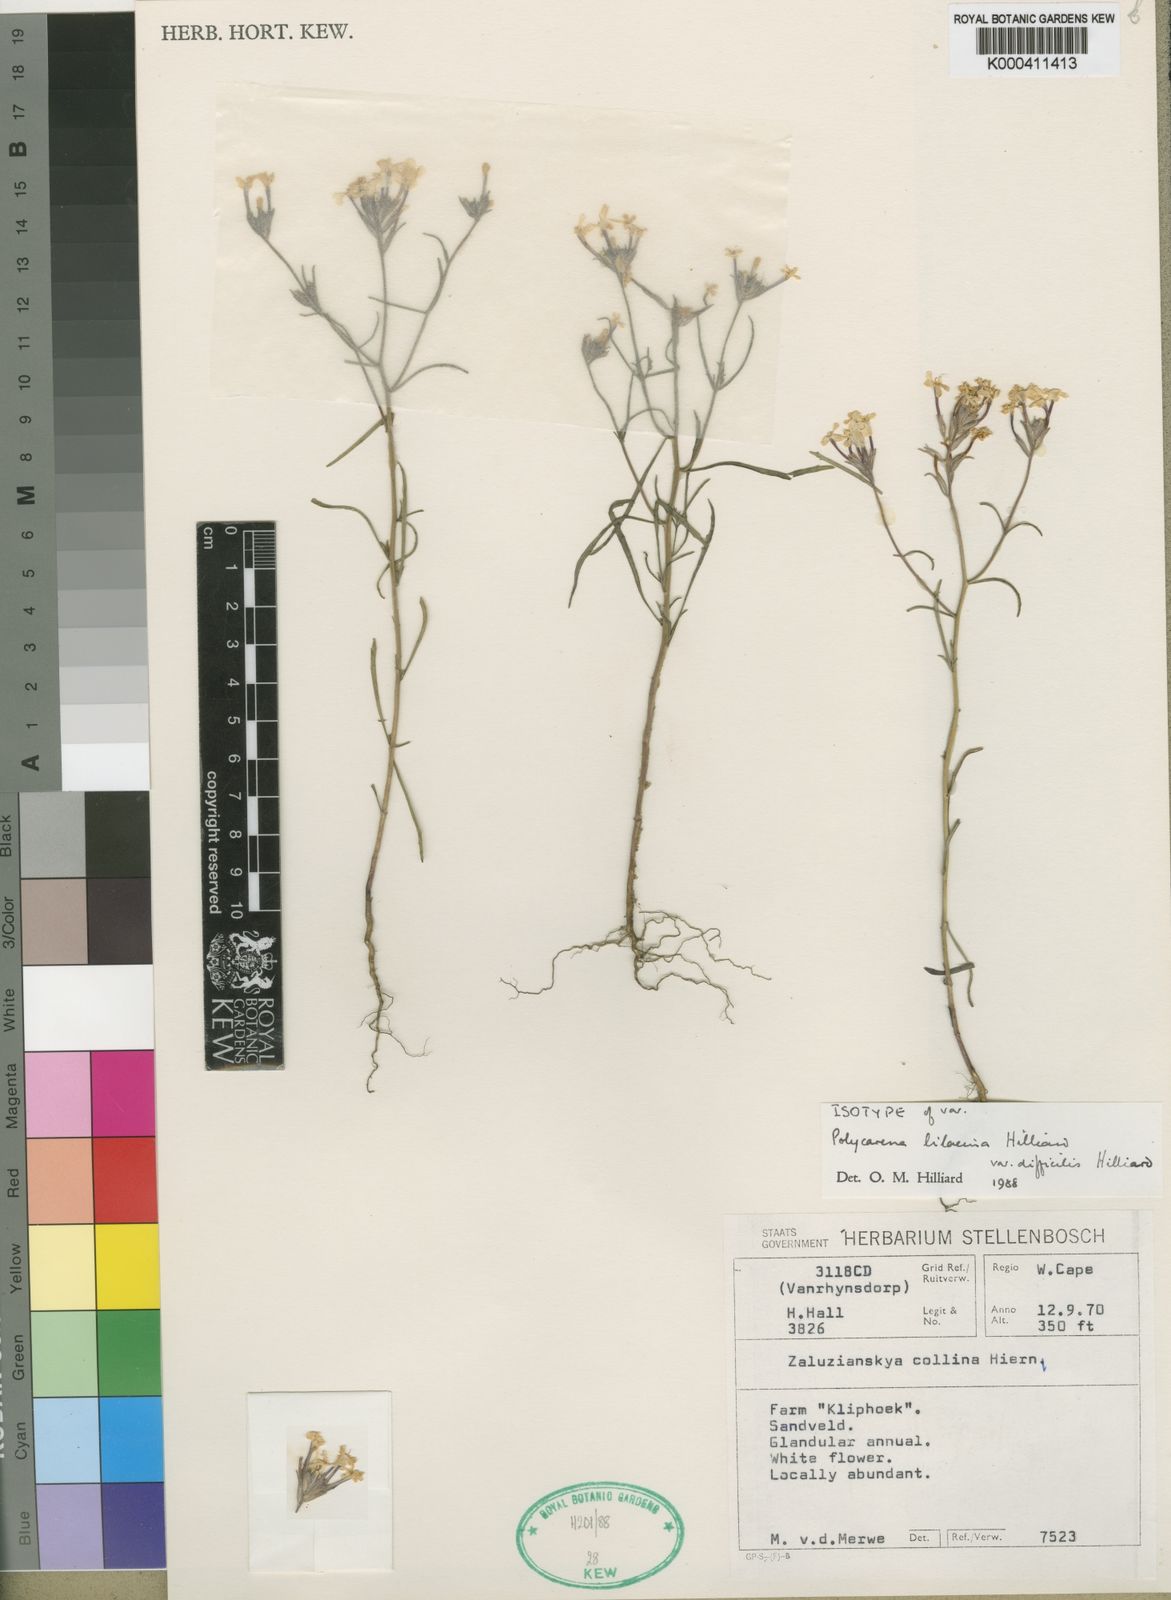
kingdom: Plantae
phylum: Tracheophyta
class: Magnoliopsida
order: Lamiales
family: Scrophulariaceae
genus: Polycarena
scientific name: Polycarena lilacina
